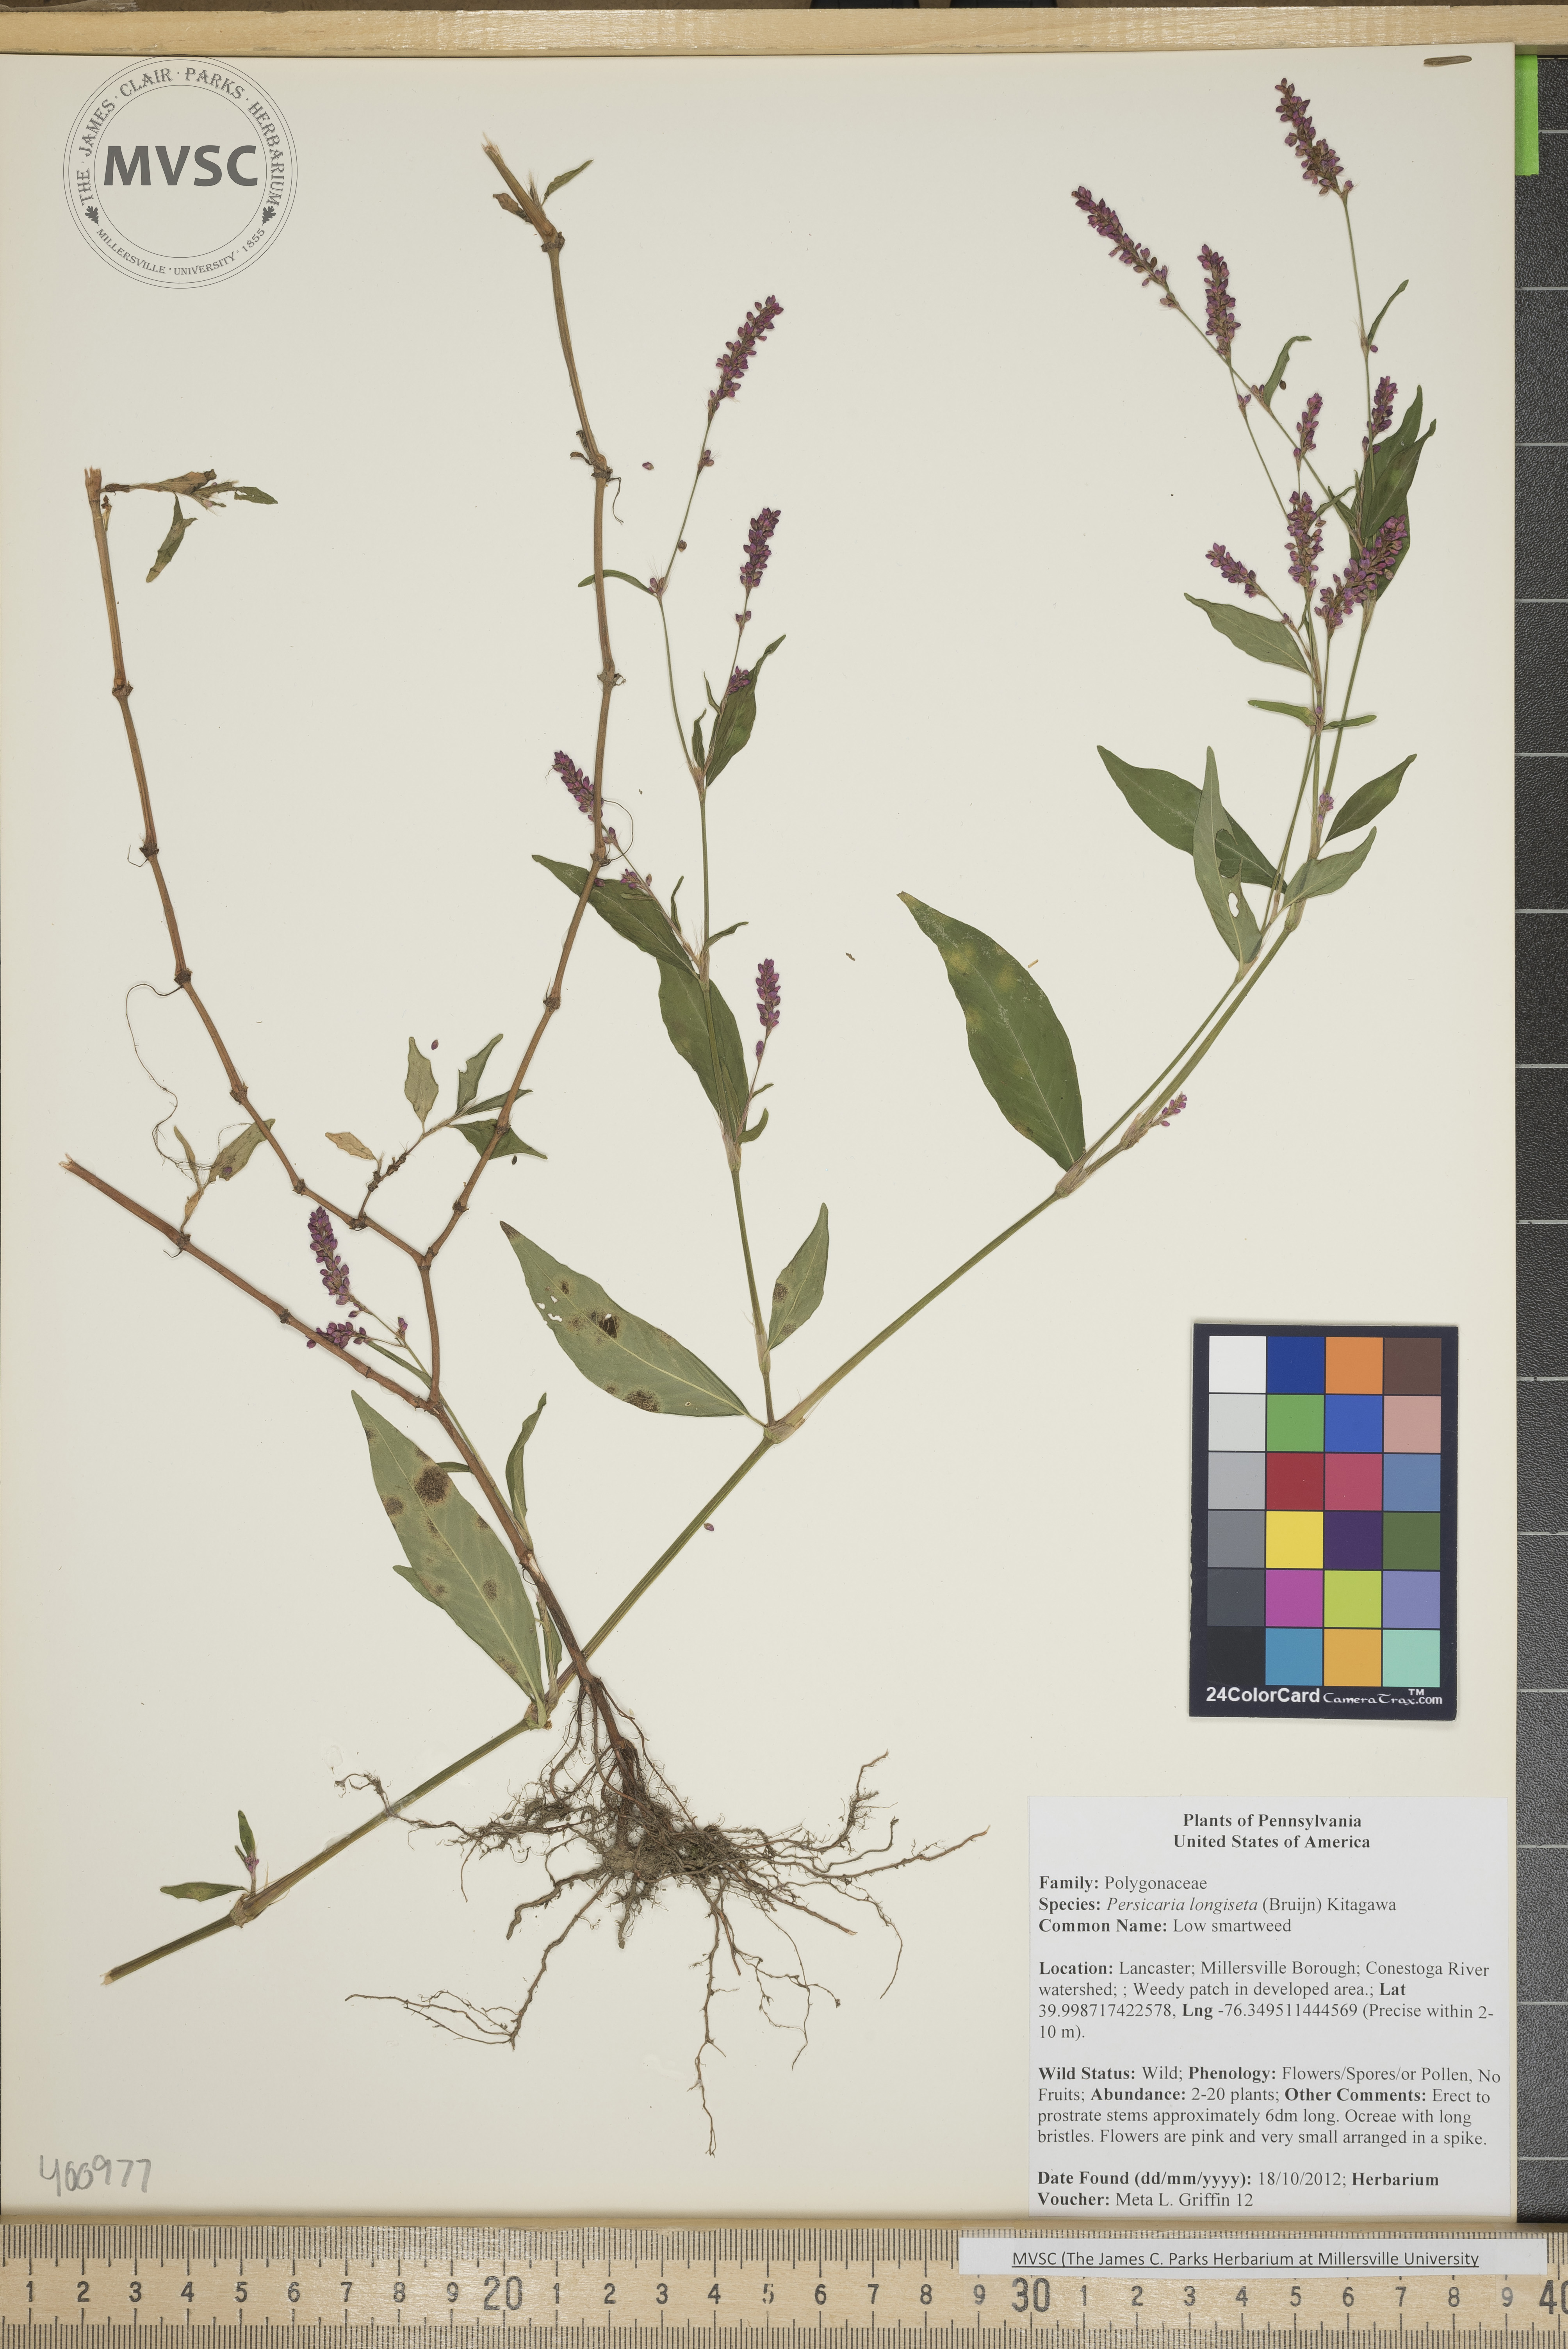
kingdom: Plantae
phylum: Tracheophyta
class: Magnoliopsida
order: Caryophyllales
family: Polygonaceae
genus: Persicaria
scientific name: Persicaria longiseta
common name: low smartweed
